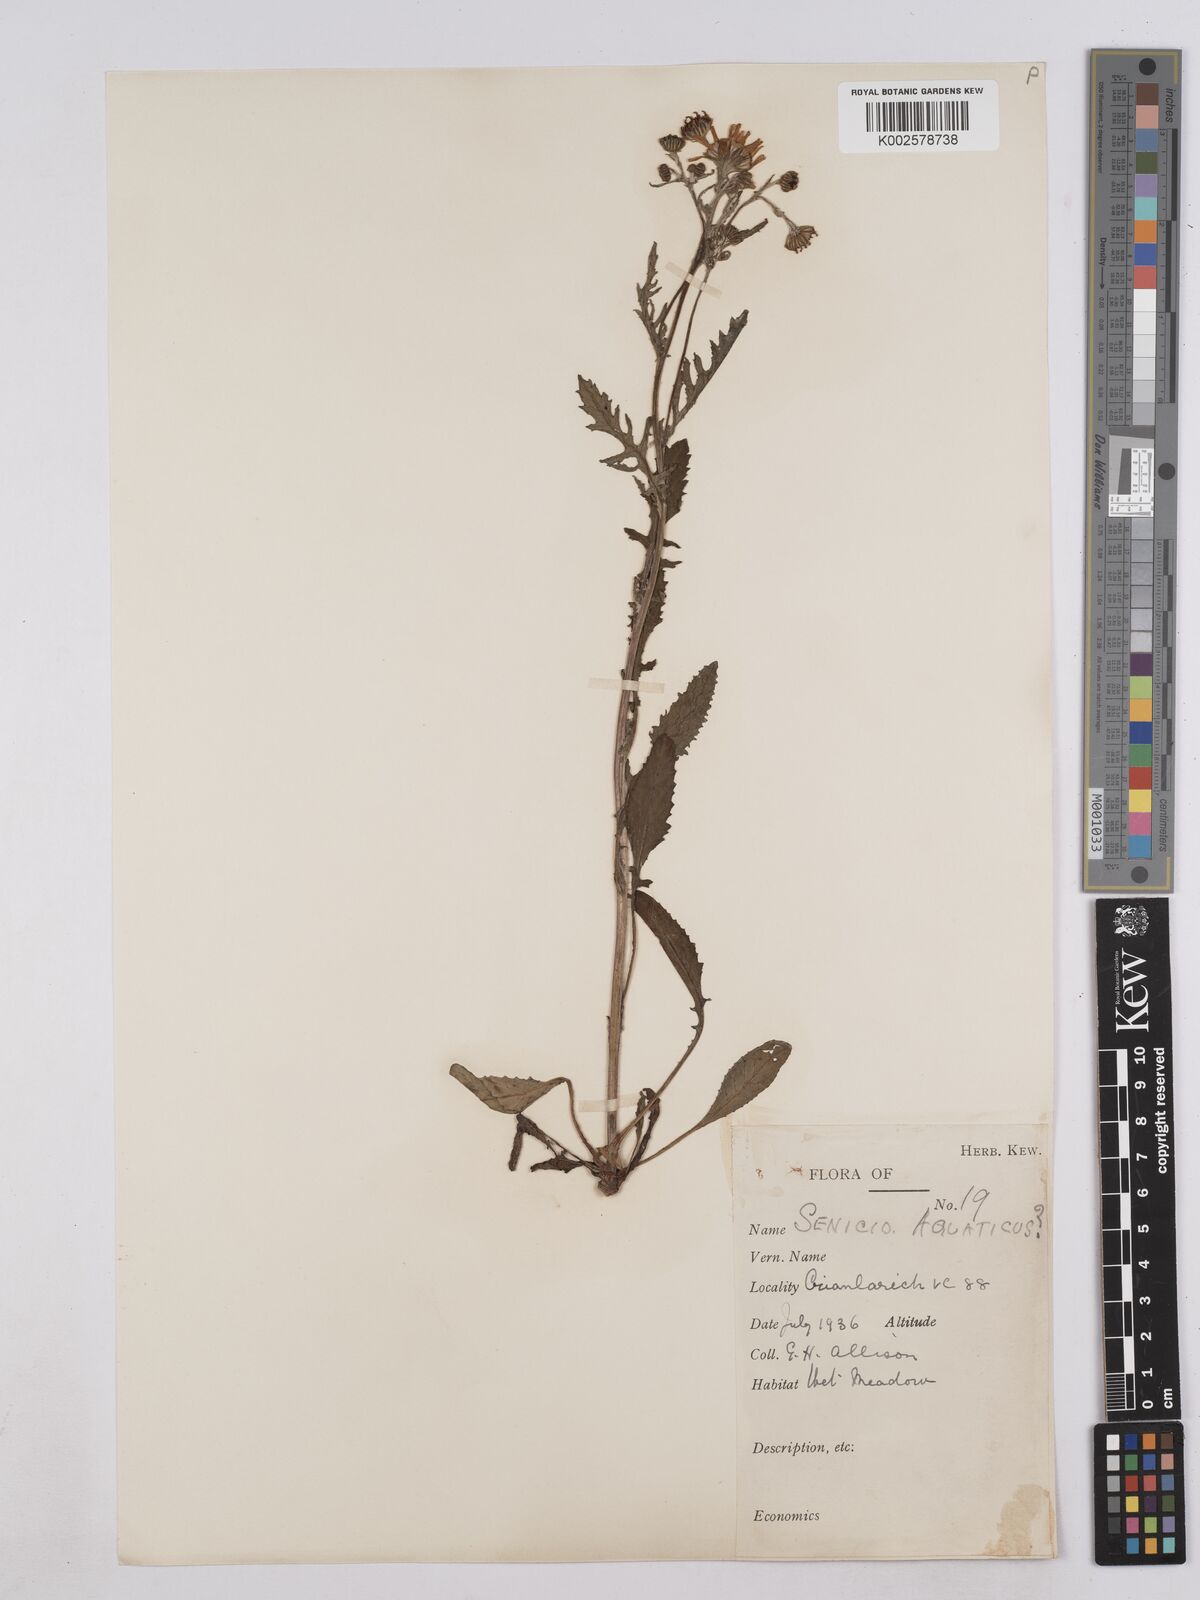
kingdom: Plantae
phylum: Tracheophyta
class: Magnoliopsida
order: Asterales
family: Asteraceae
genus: Jacobaea
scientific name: Jacobaea aquatica
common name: Water ragwort
